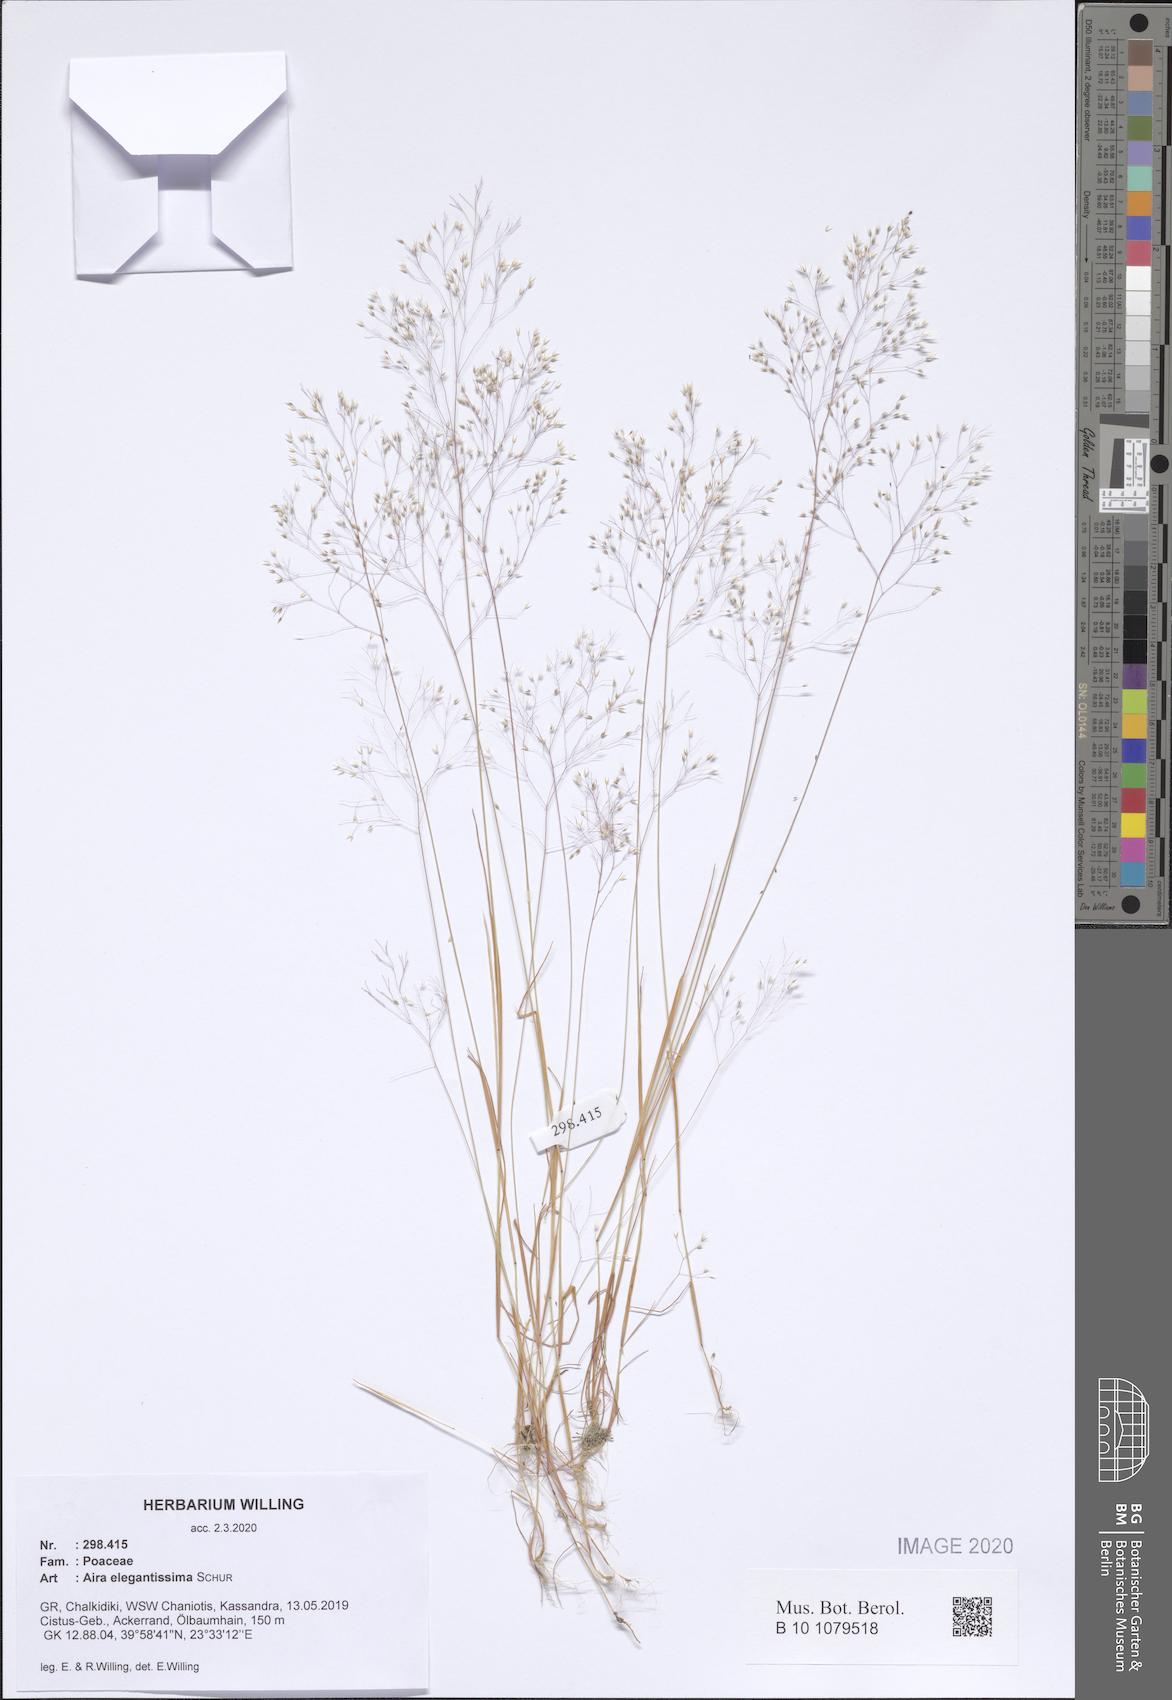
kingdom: Plantae
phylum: Tracheophyta
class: Liliopsida
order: Poales
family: Poaceae
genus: Aira
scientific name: Aira elegans
